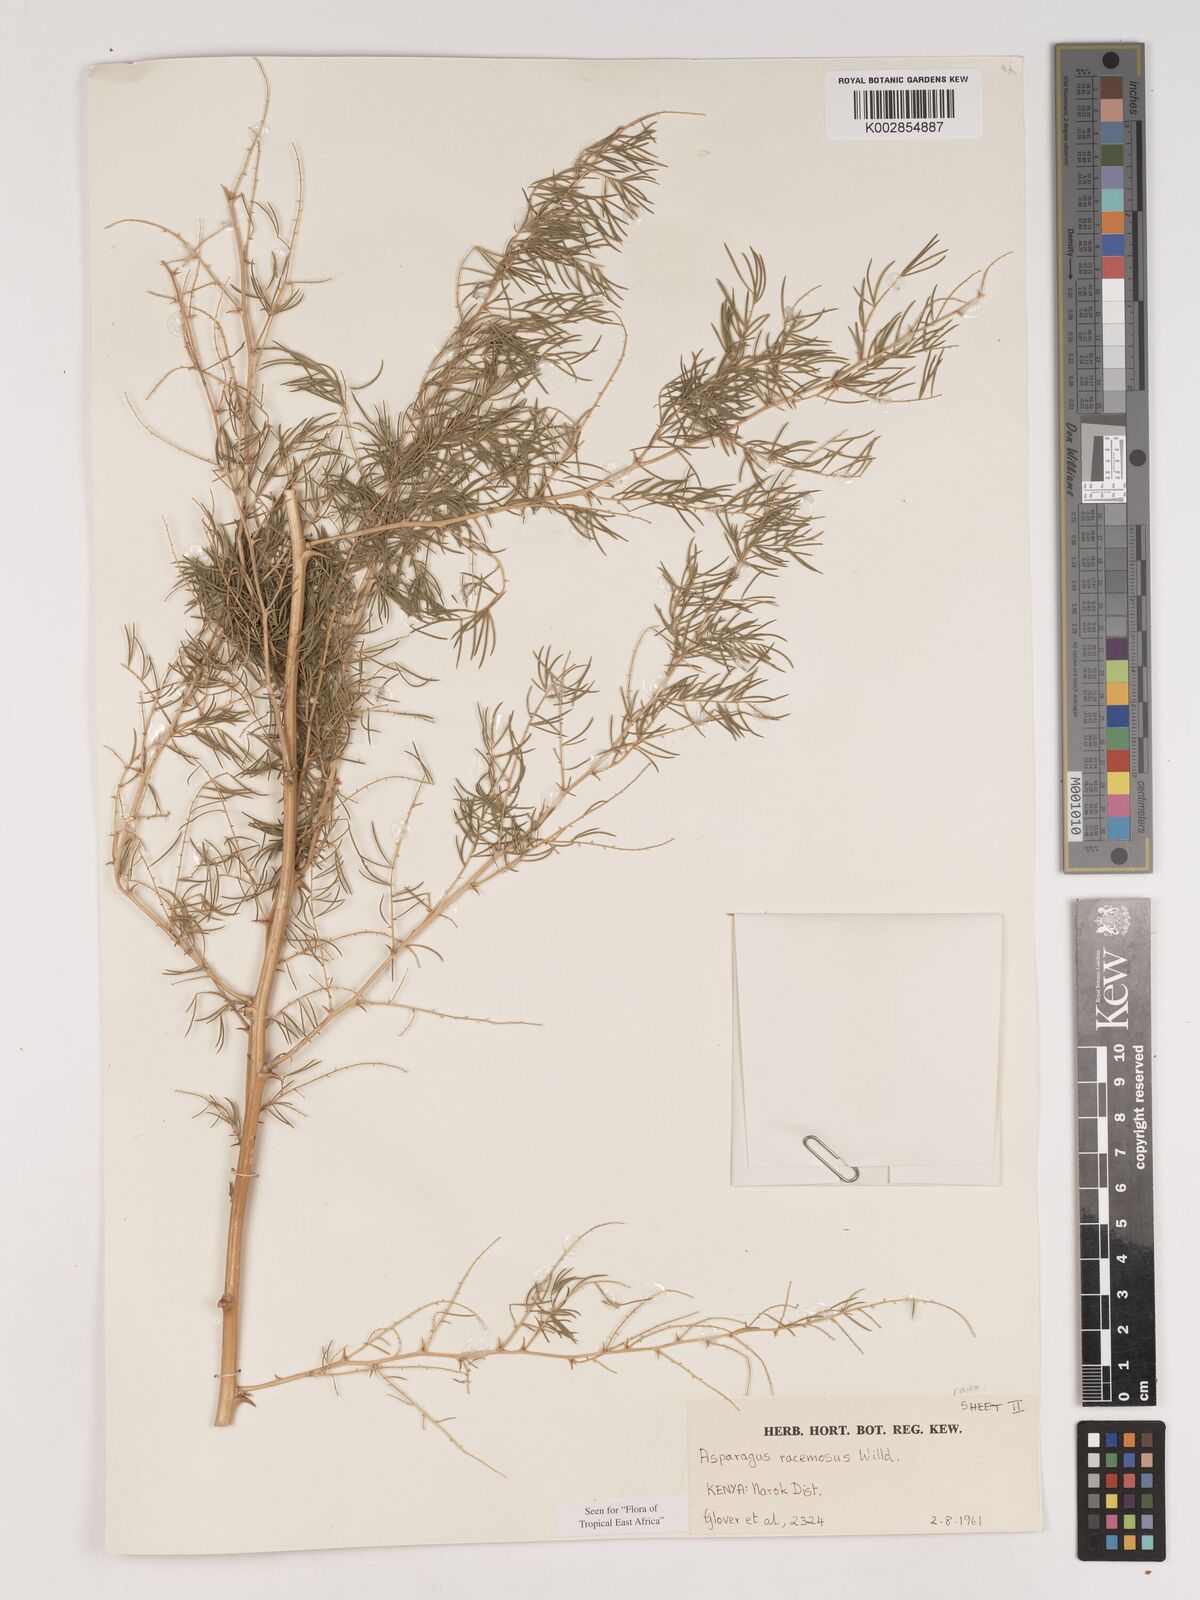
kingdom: Plantae
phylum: Tracheophyta
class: Liliopsida
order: Asparagales
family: Asparagaceae
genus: Asparagus
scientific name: Asparagus racemosus
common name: Asparagus-fern
